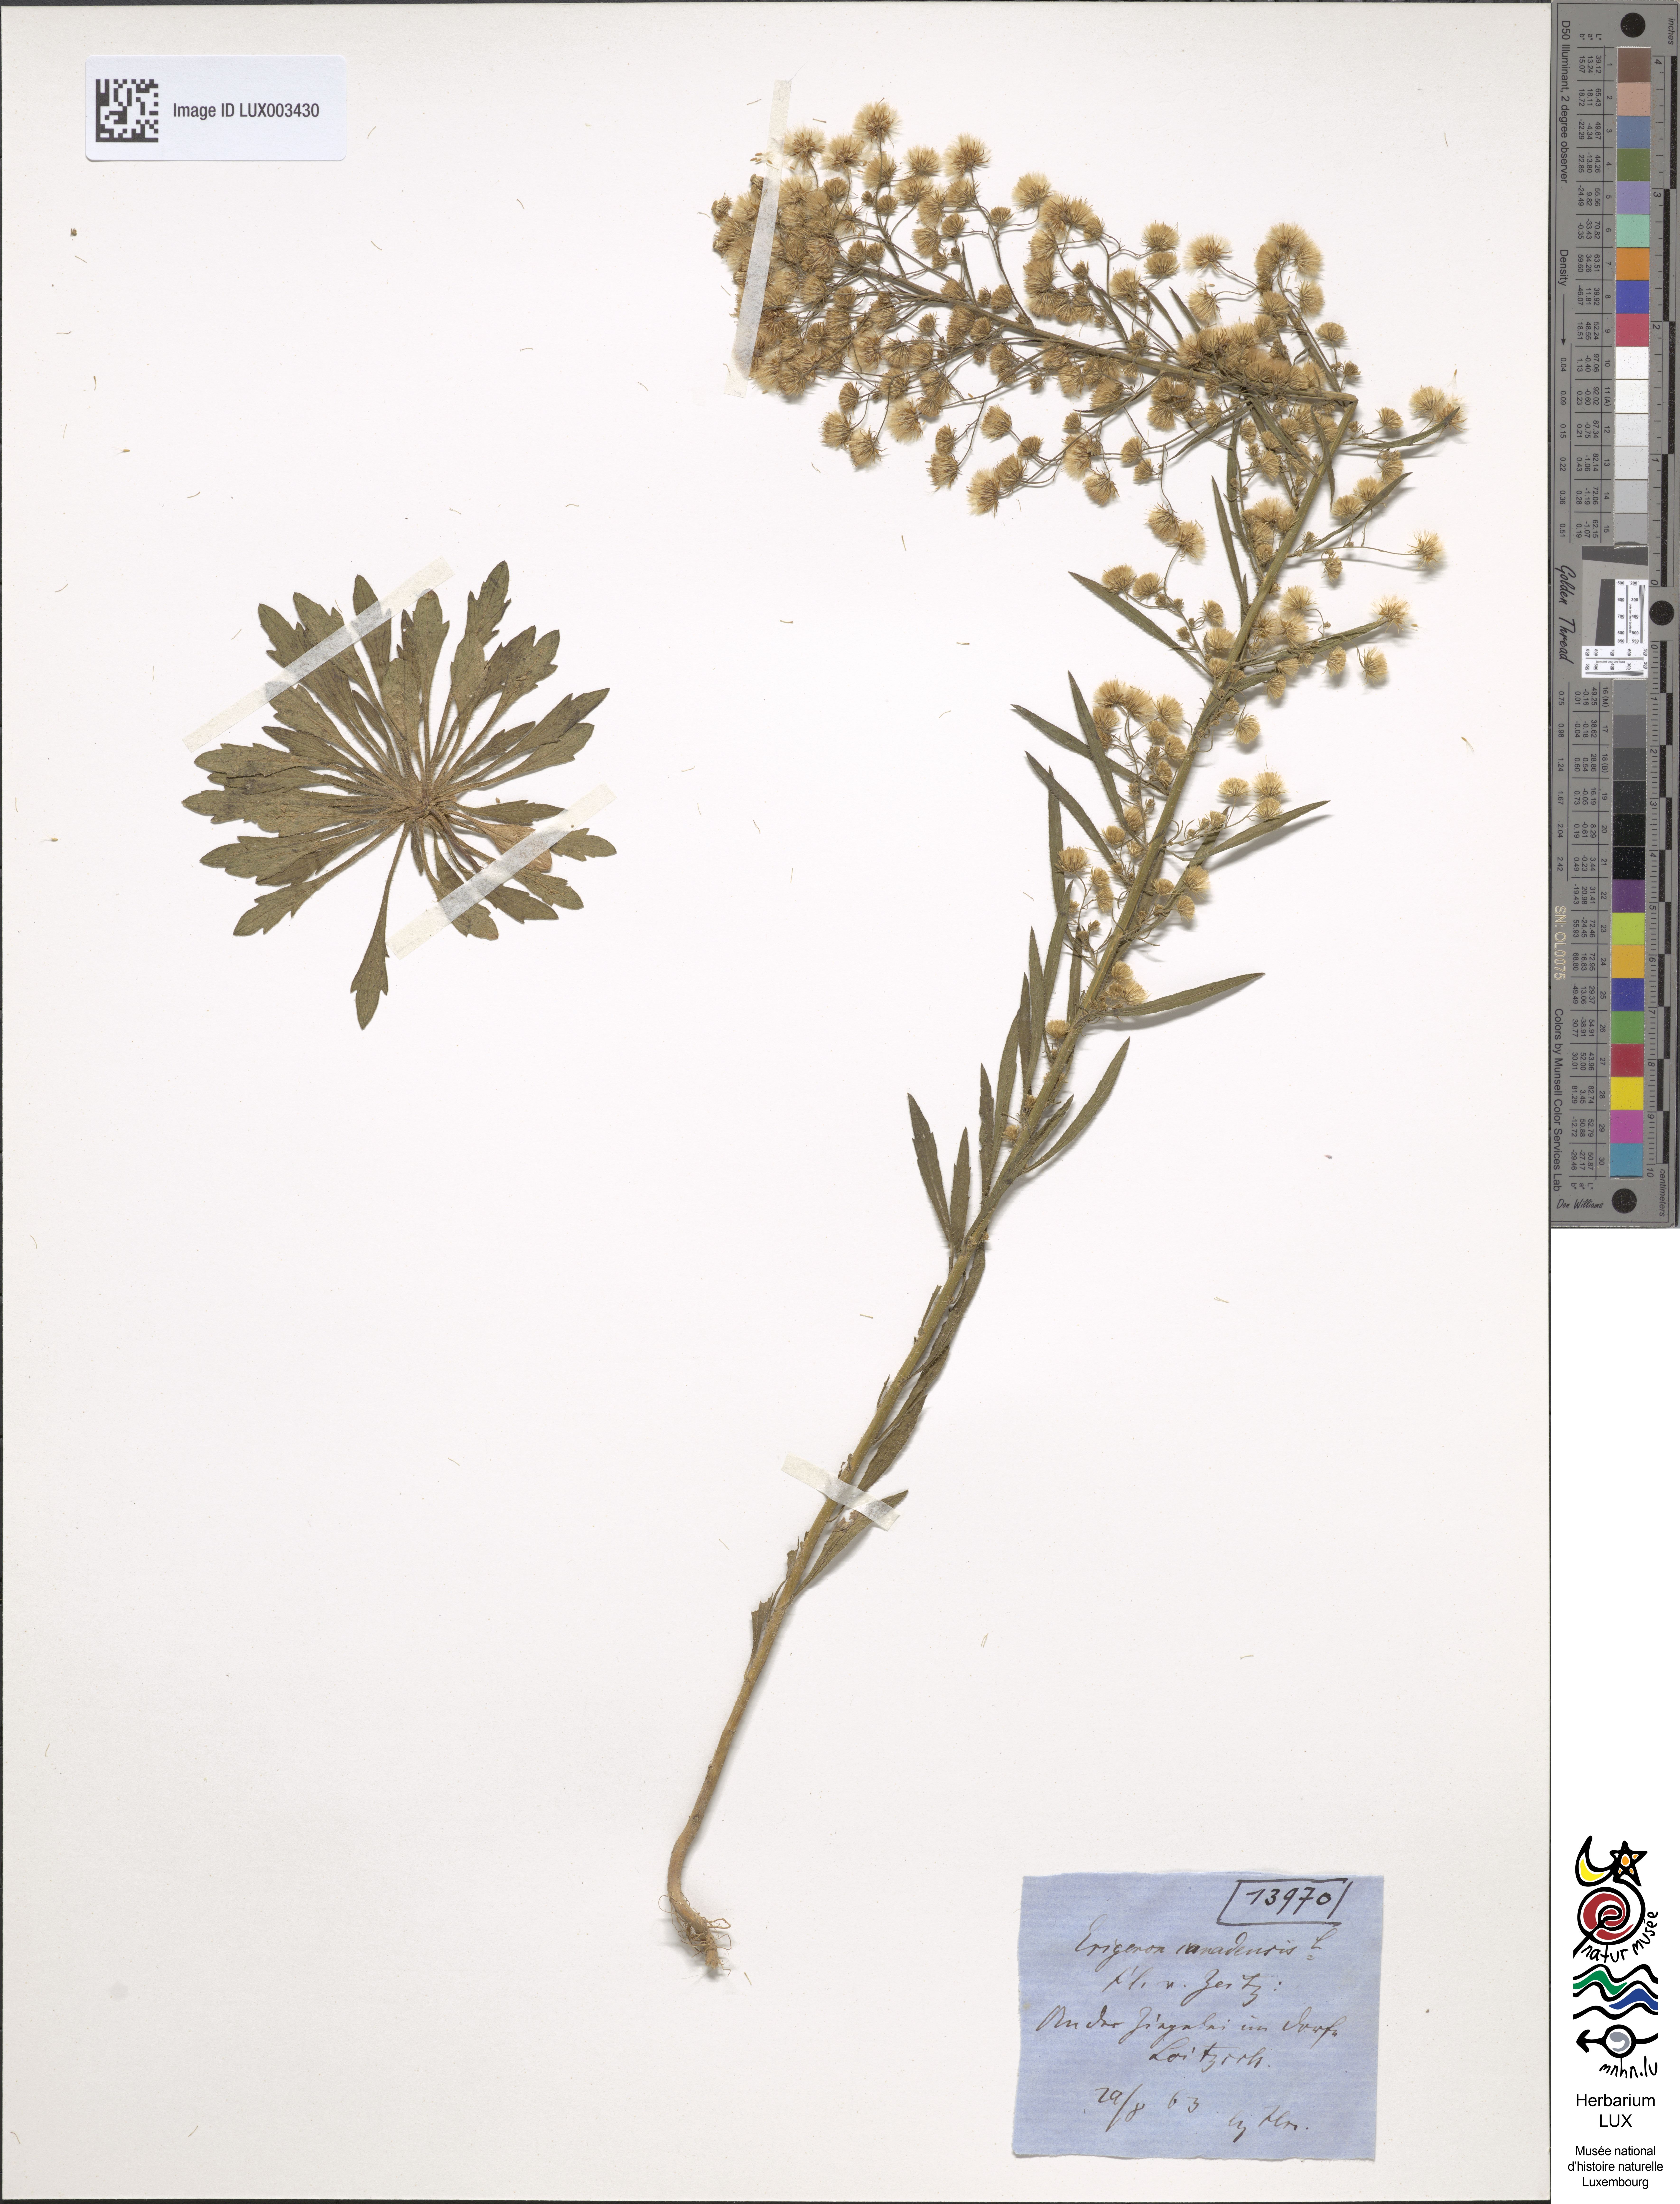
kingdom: Plantae
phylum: Tracheophyta
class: Magnoliopsida
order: Asterales
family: Asteraceae
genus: Erigeron
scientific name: Erigeron canadensis
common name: Canadian fleabane
